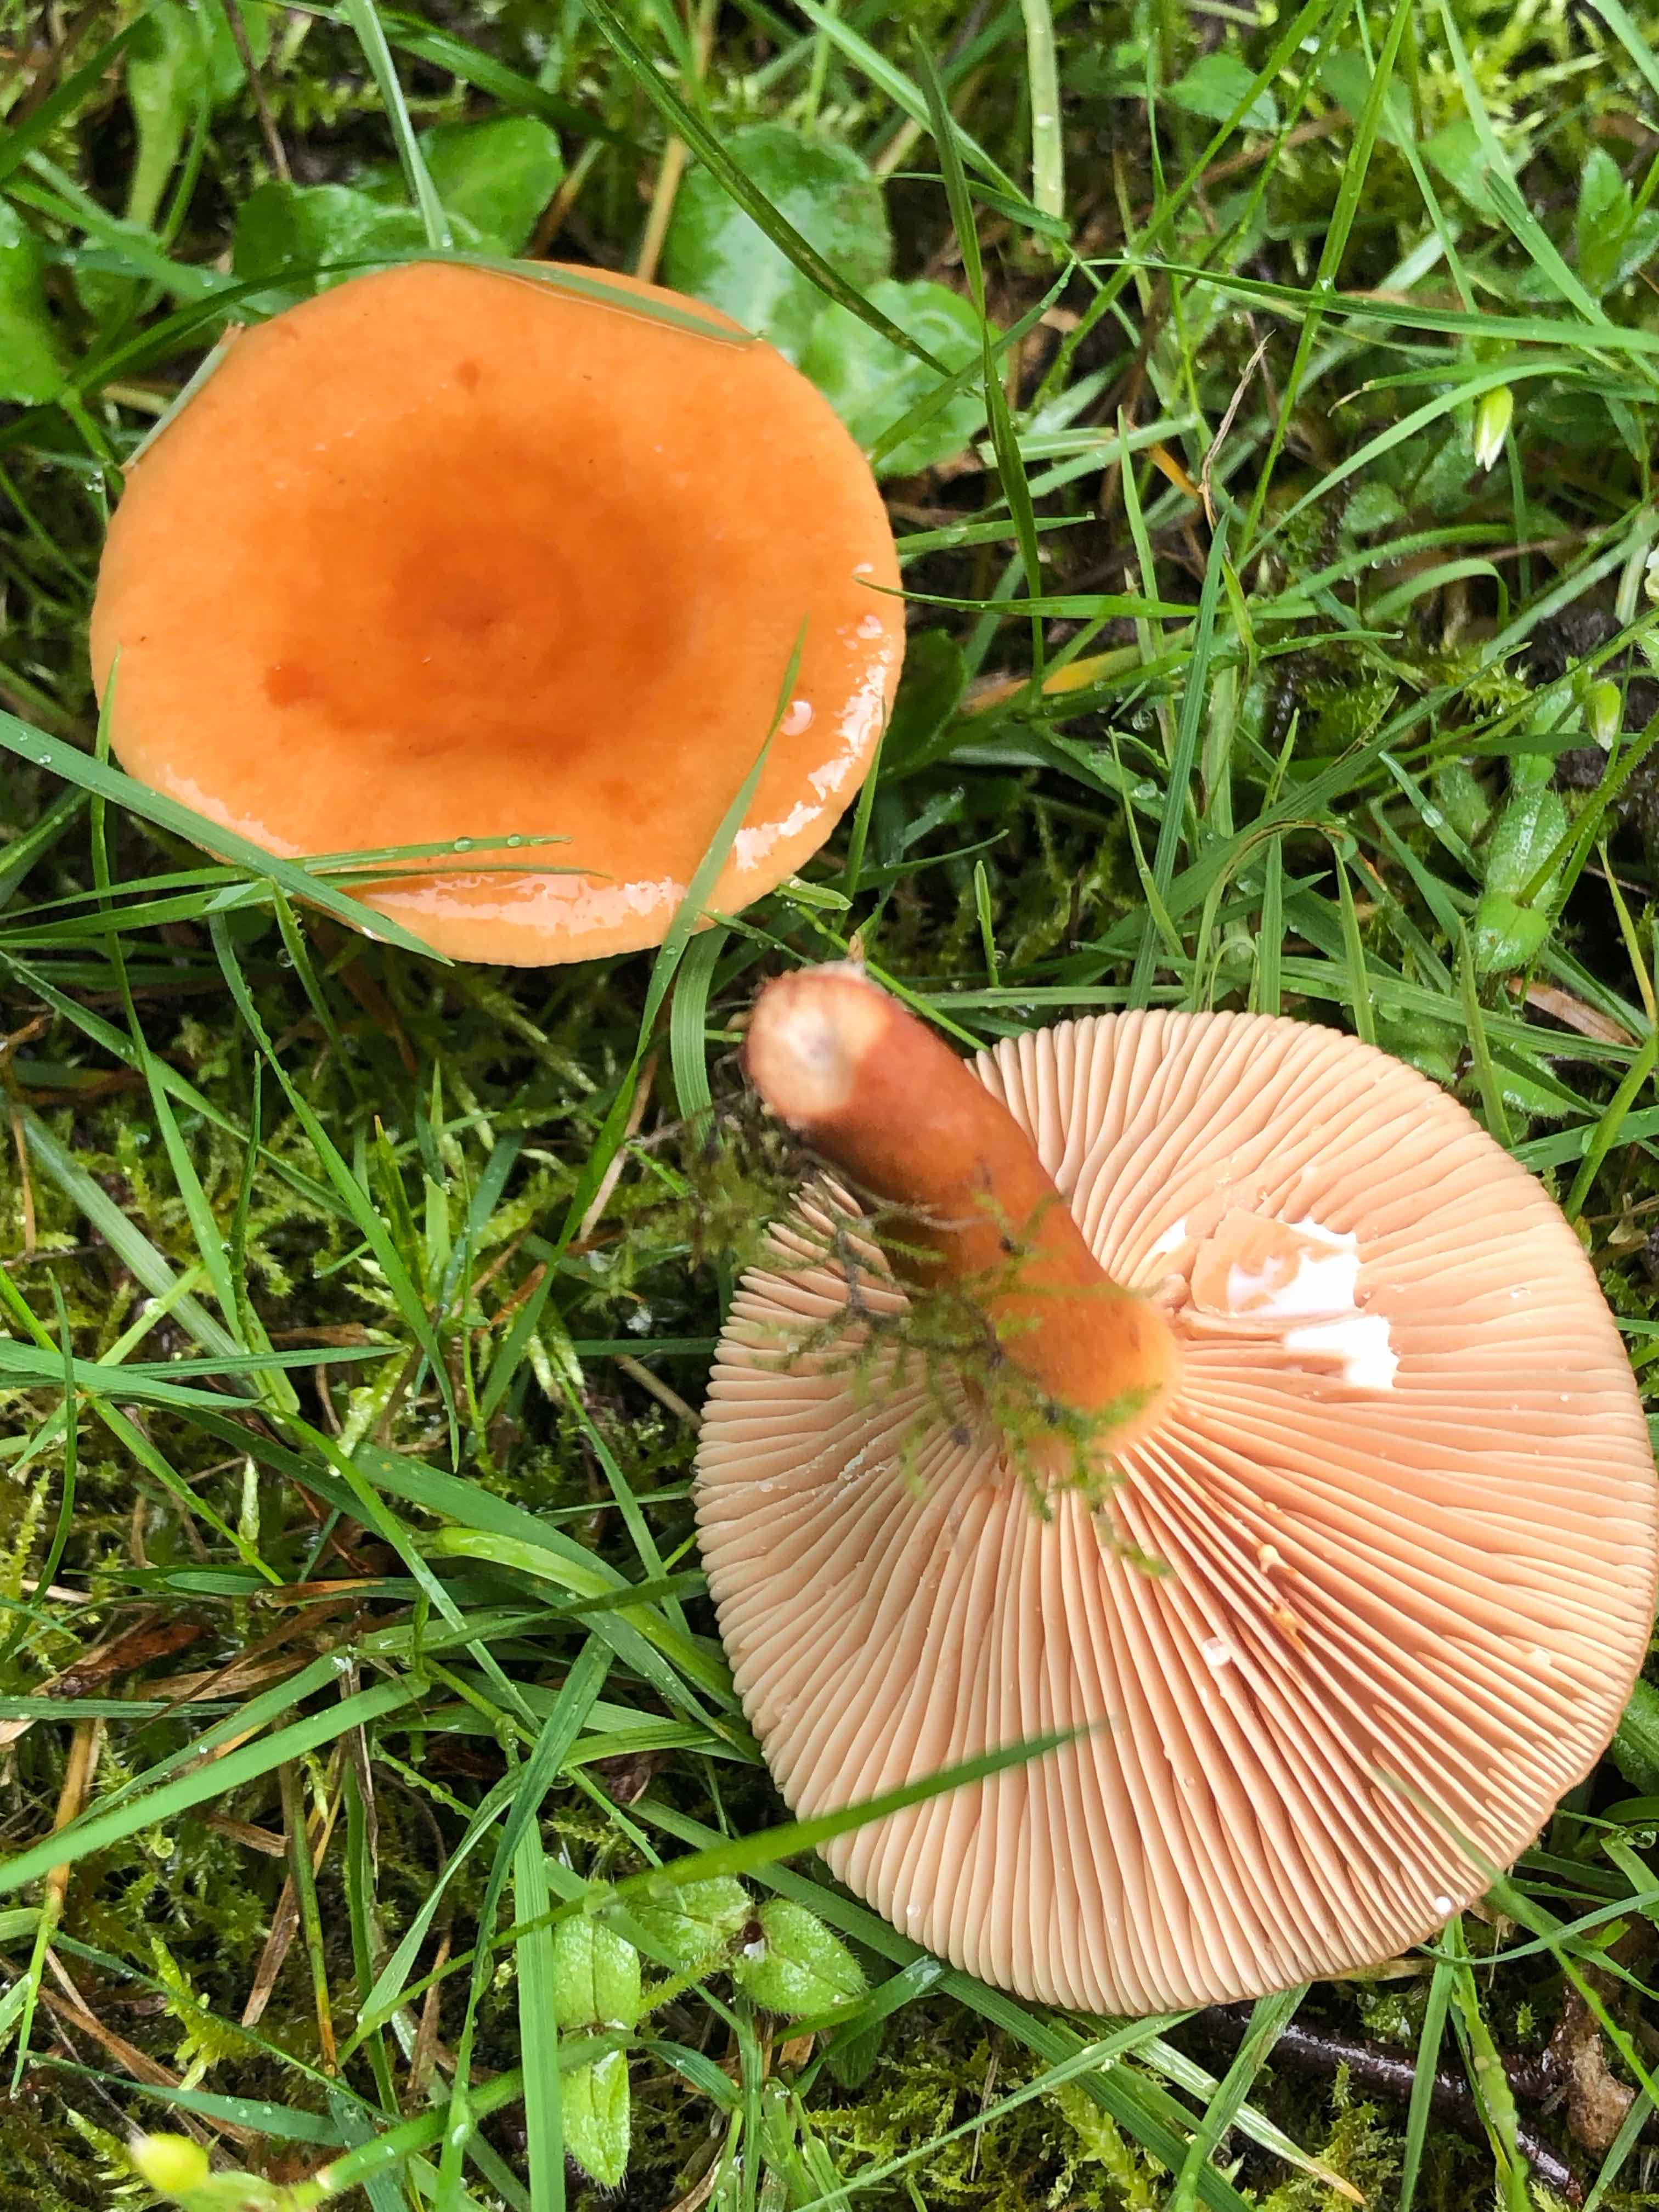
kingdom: Fungi
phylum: Basidiomycota
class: Agaricomycetes
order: Russulales
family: Russulaceae
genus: Lactarius
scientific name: Lactarius aurantiacus
